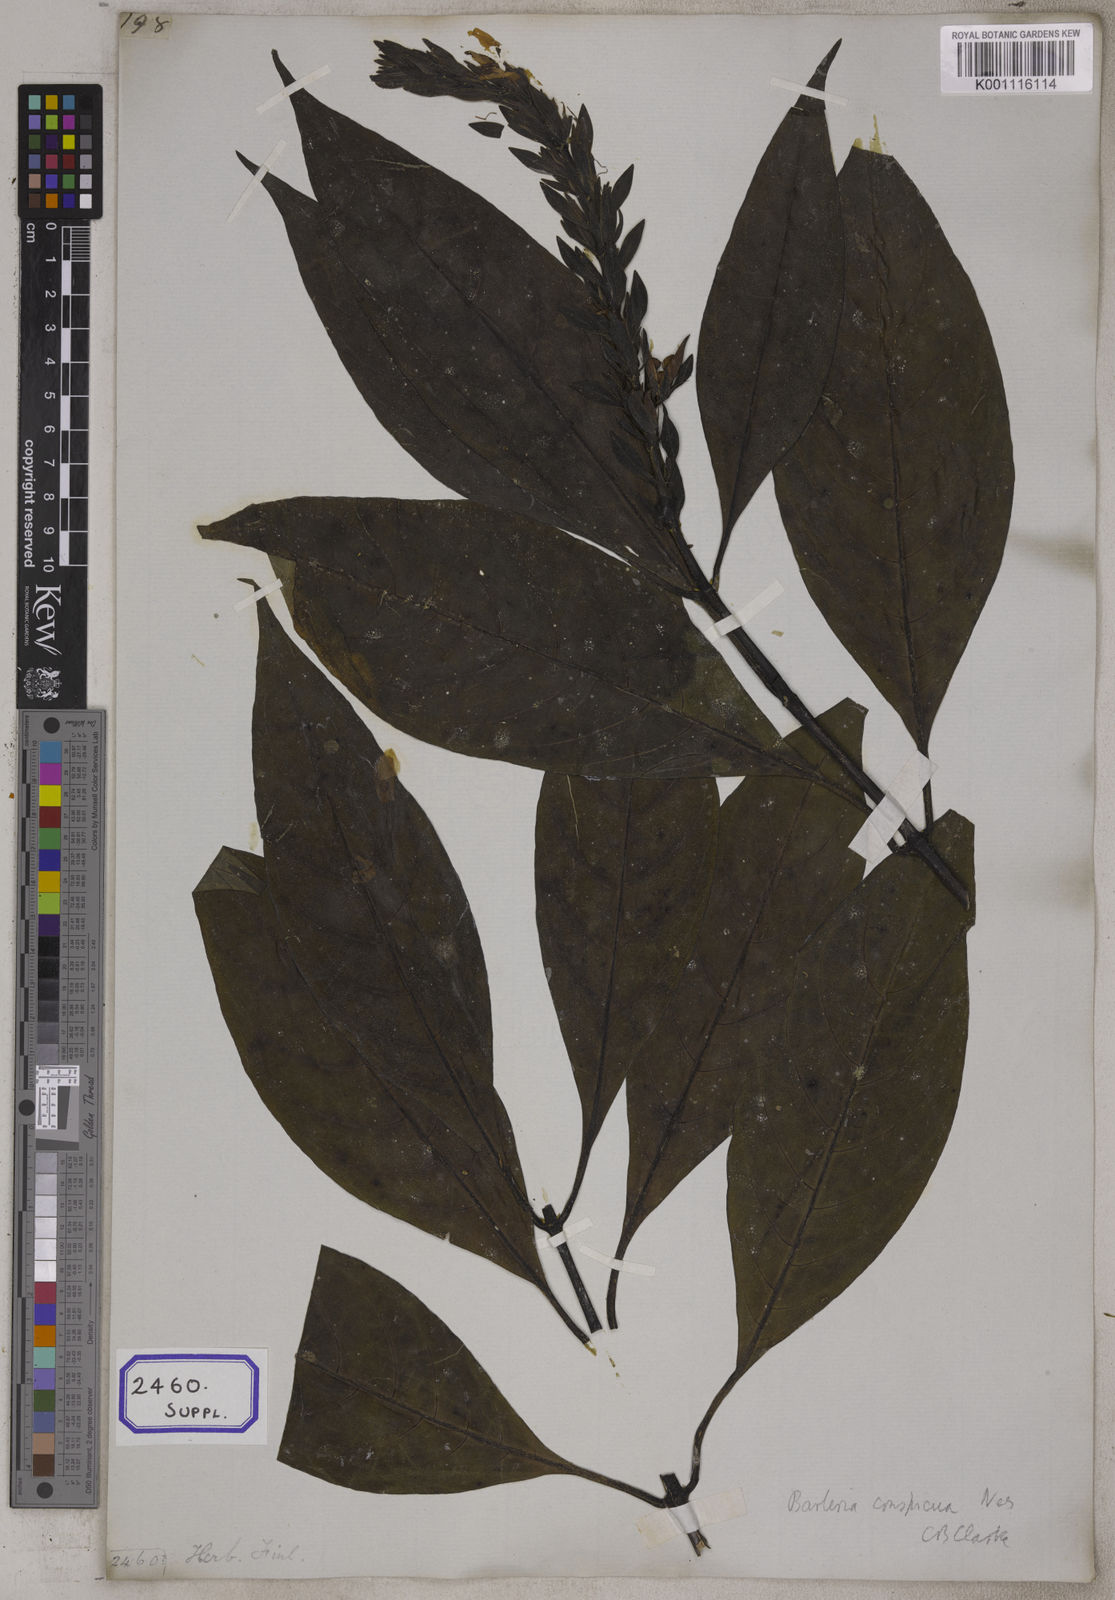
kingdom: Plantae
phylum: Tracheophyta
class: Magnoliopsida
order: Lamiales
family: Acanthaceae
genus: Barleria
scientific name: Barleria conspicua
